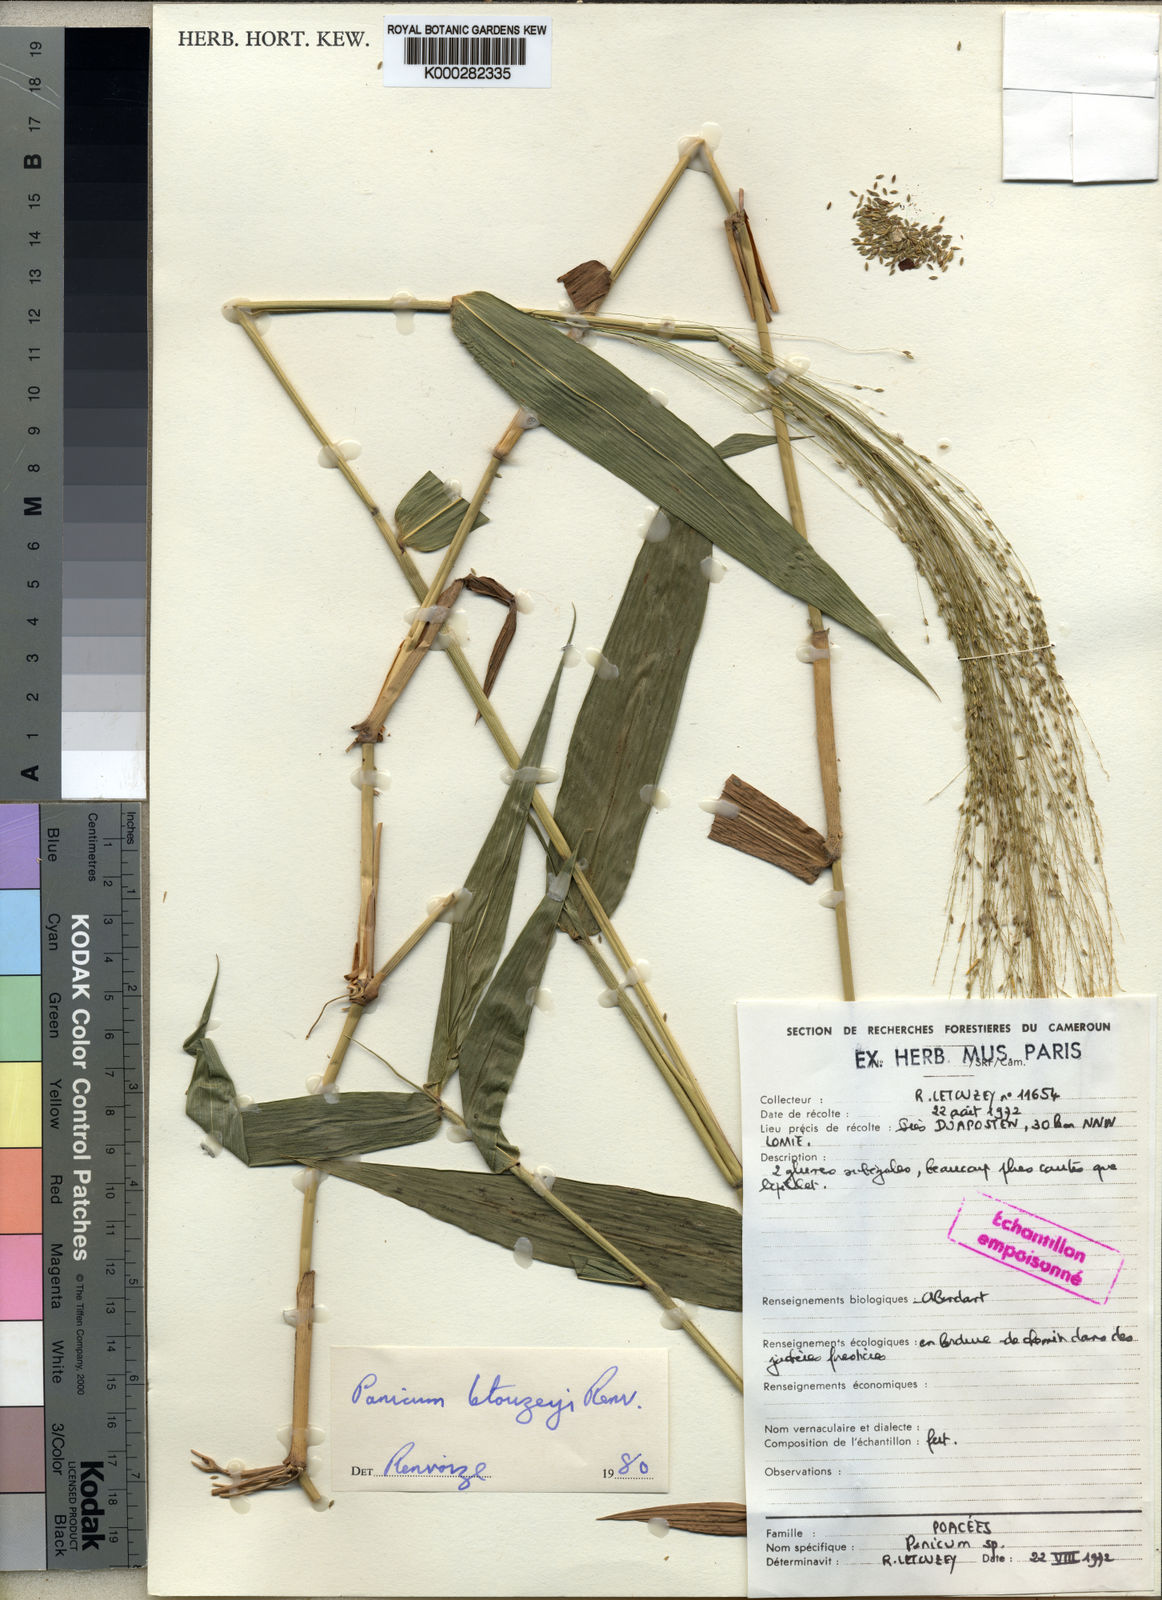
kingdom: Plantae
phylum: Tracheophyta
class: Liliopsida
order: Poales
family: Poaceae
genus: Ottochloa
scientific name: Ottochloa nodosa
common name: Slender-panic grass
